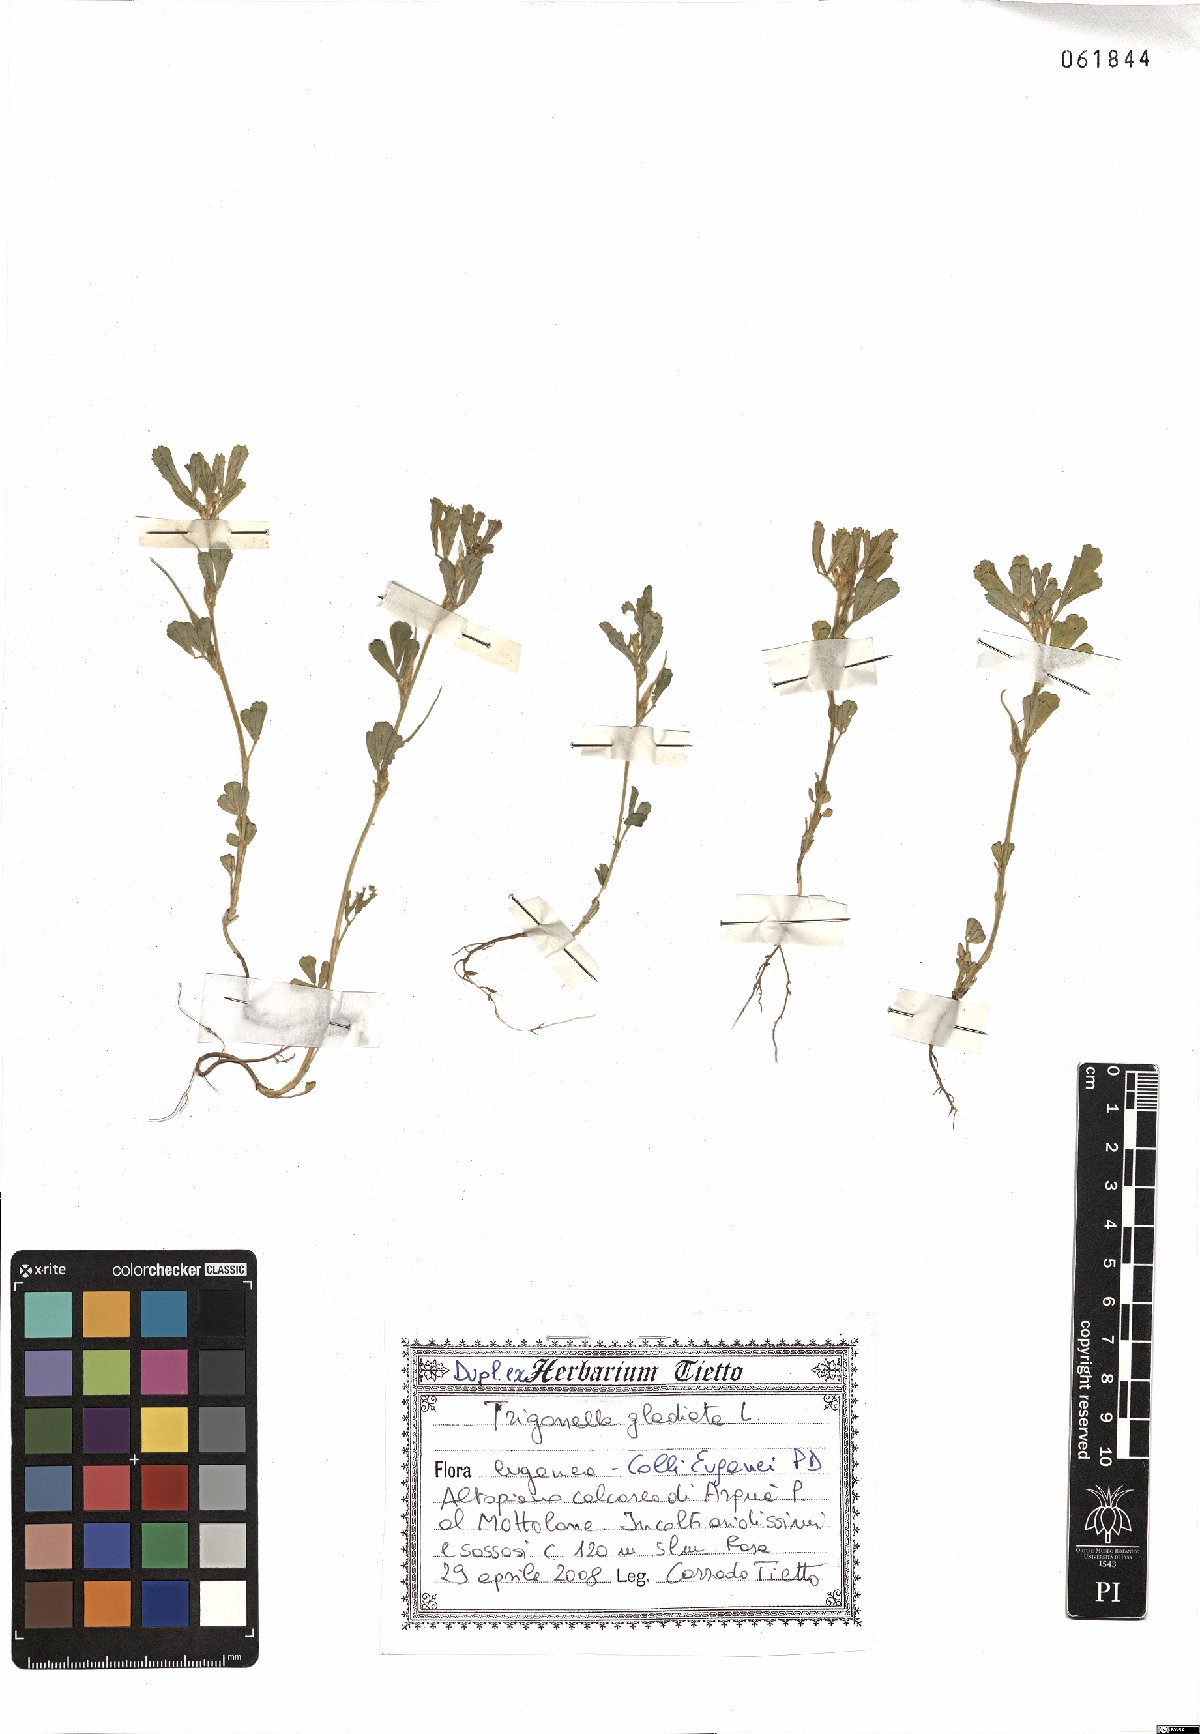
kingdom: Plantae
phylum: Tracheophyta
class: Magnoliopsida
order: Fabales
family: Fabaceae
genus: Trigonella
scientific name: Trigonella gladiata
